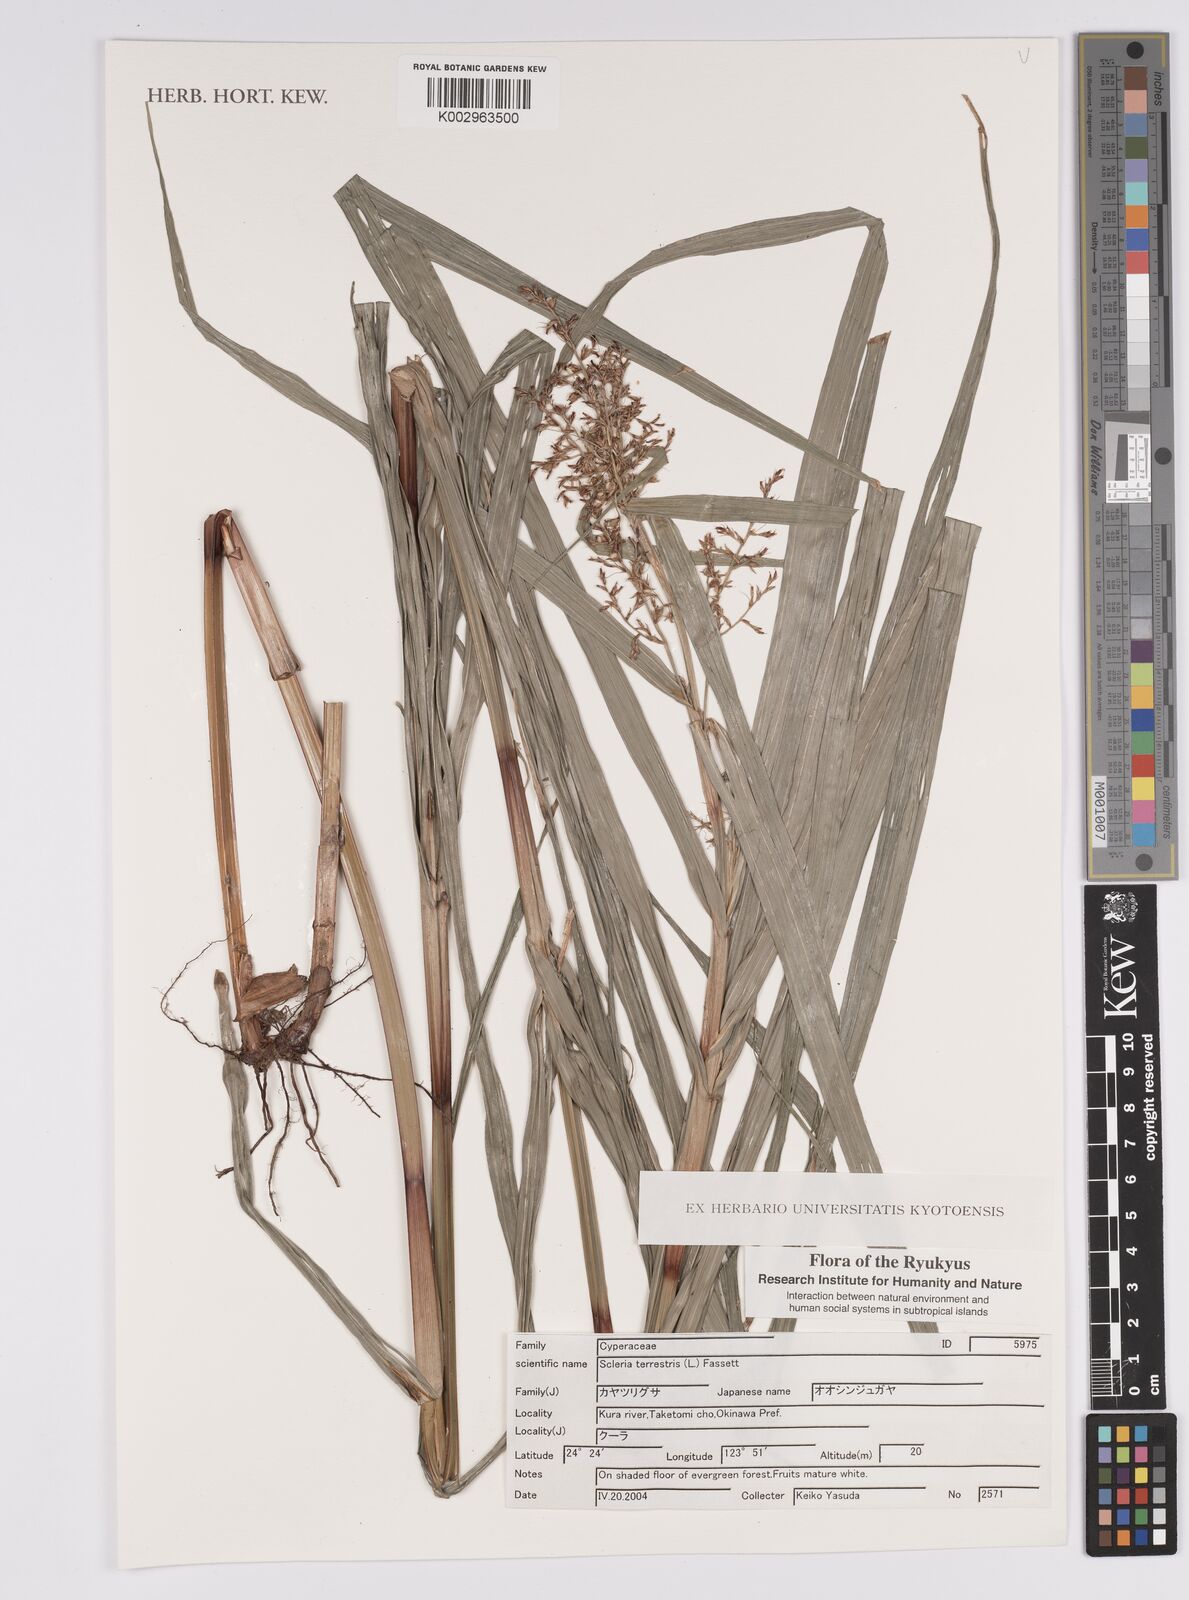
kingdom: Plantae
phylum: Tracheophyta
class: Liliopsida
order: Poales
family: Cyperaceae
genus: Scleria
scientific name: Scleria terrestris
